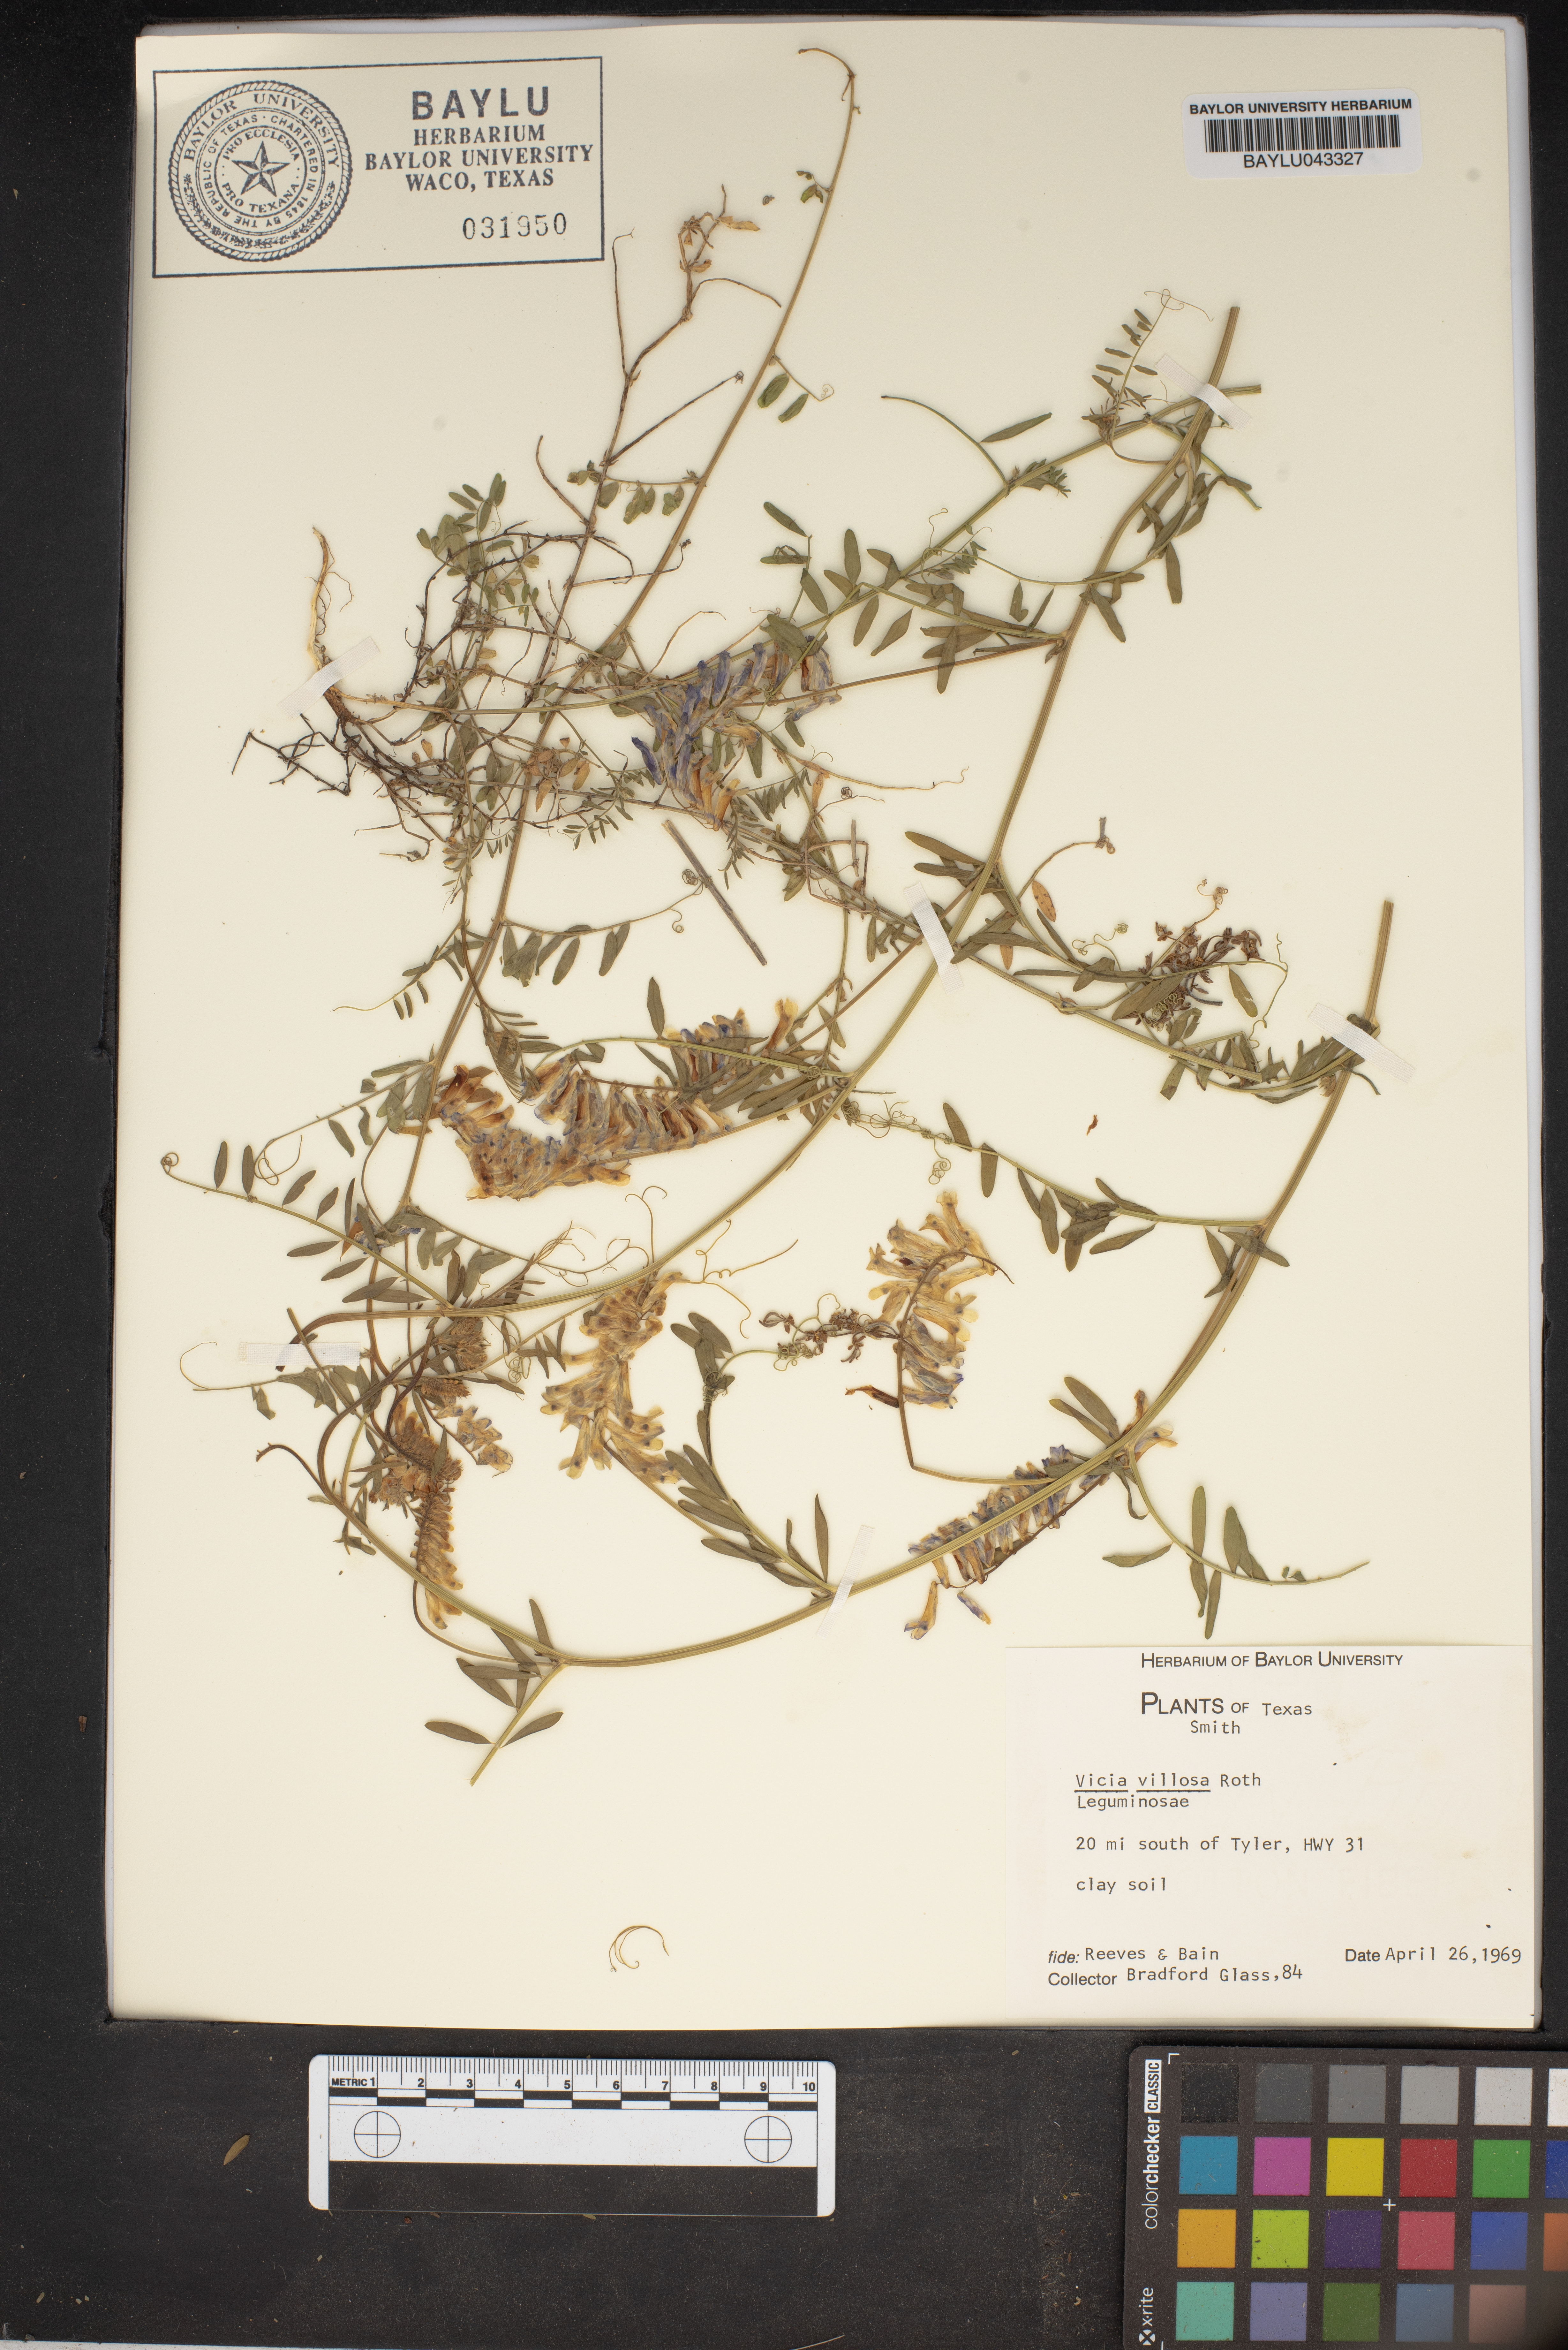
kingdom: Plantae
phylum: Tracheophyta
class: Magnoliopsida
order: Fabales
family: Fabaceae
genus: Vicia
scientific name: Vicia villosa
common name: Fodder vetch
